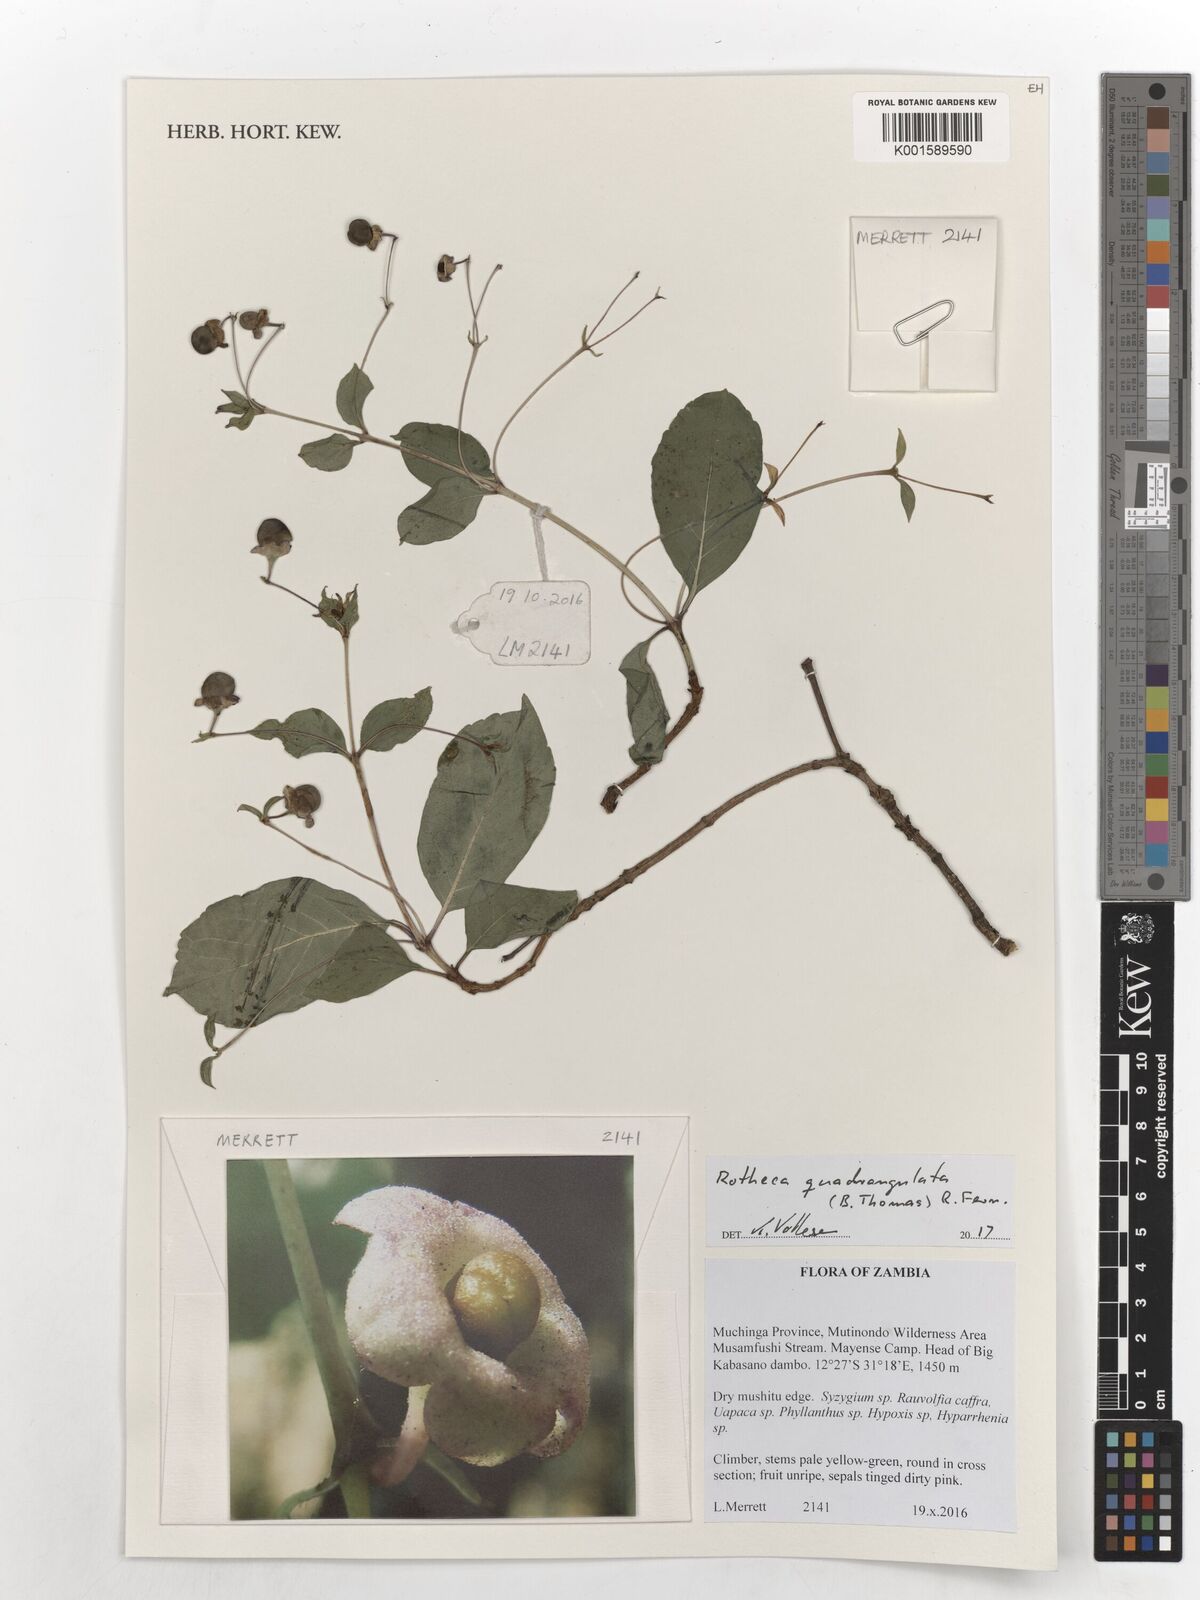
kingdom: Plantae
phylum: Tracheophyta
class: Magnoliopsida
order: Lamiales
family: Lamiaceae
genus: Rotheca
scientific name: Rotheca quadrangulata
